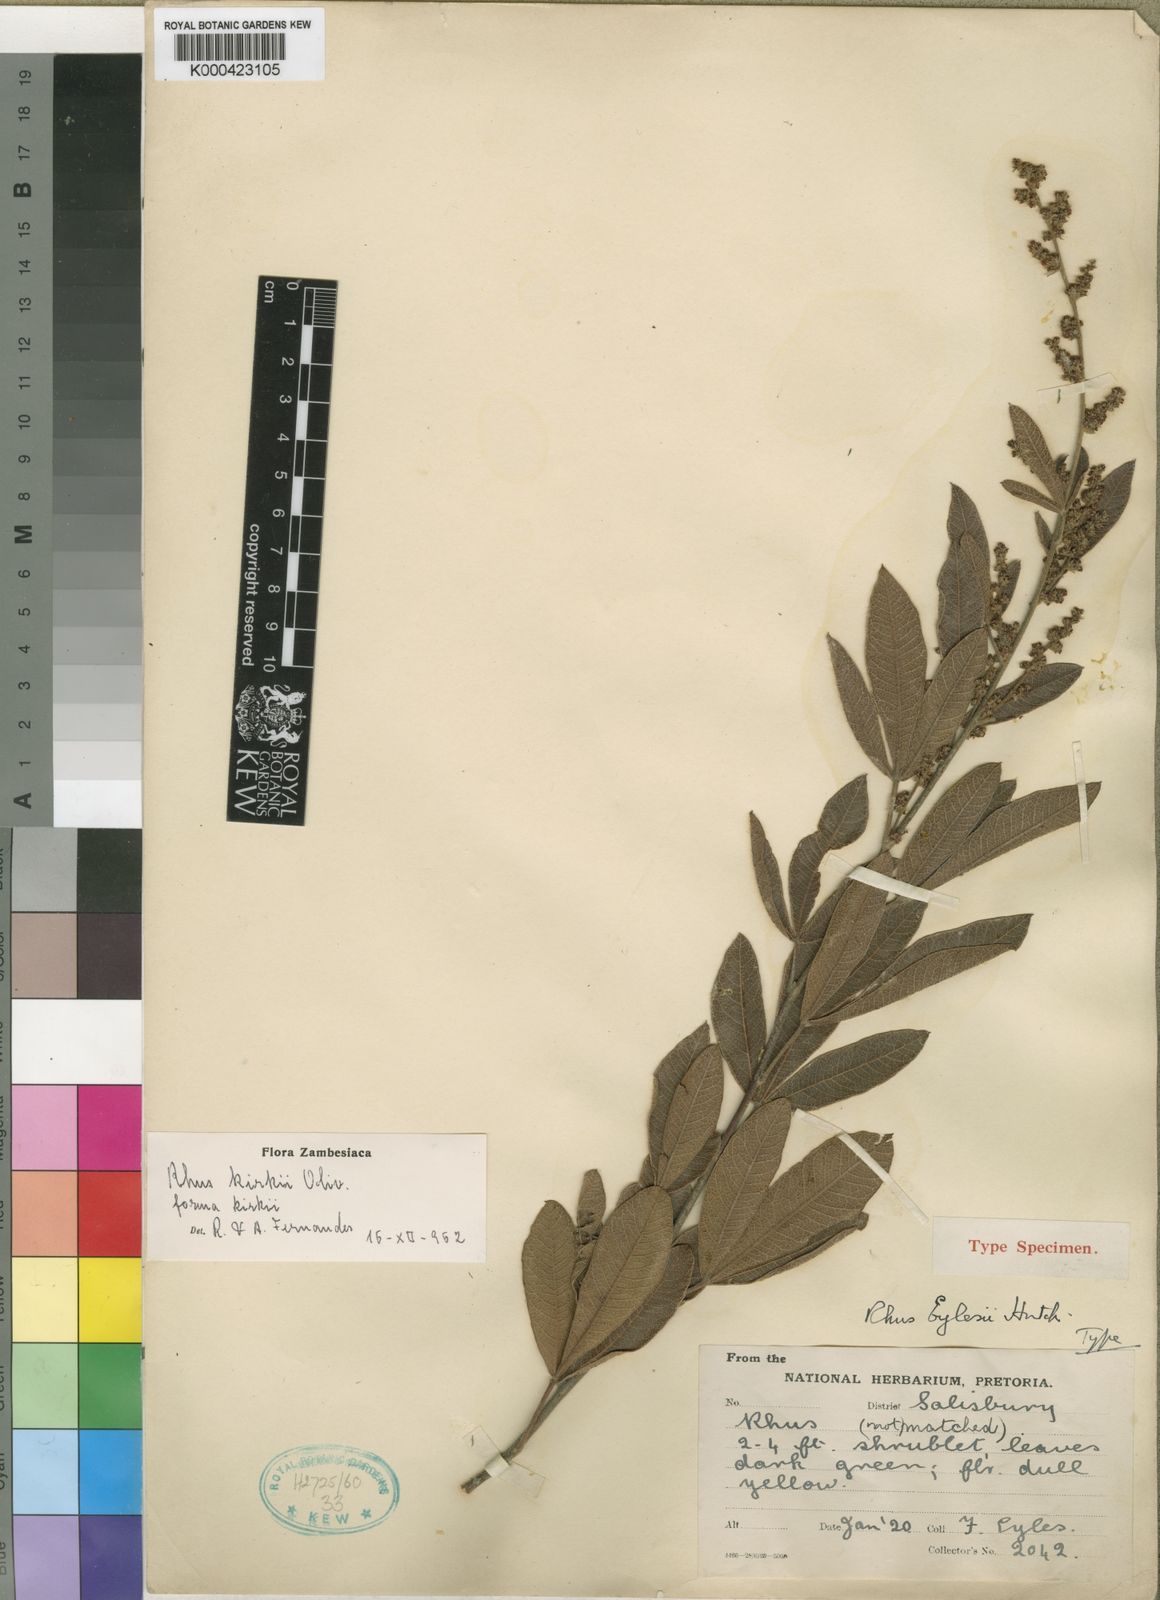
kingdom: Plantae
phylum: Tracheophyta
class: Magnoliopsida
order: Sapindales
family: Anacardiaceae
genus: Searsia
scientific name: Searsia kirkii
